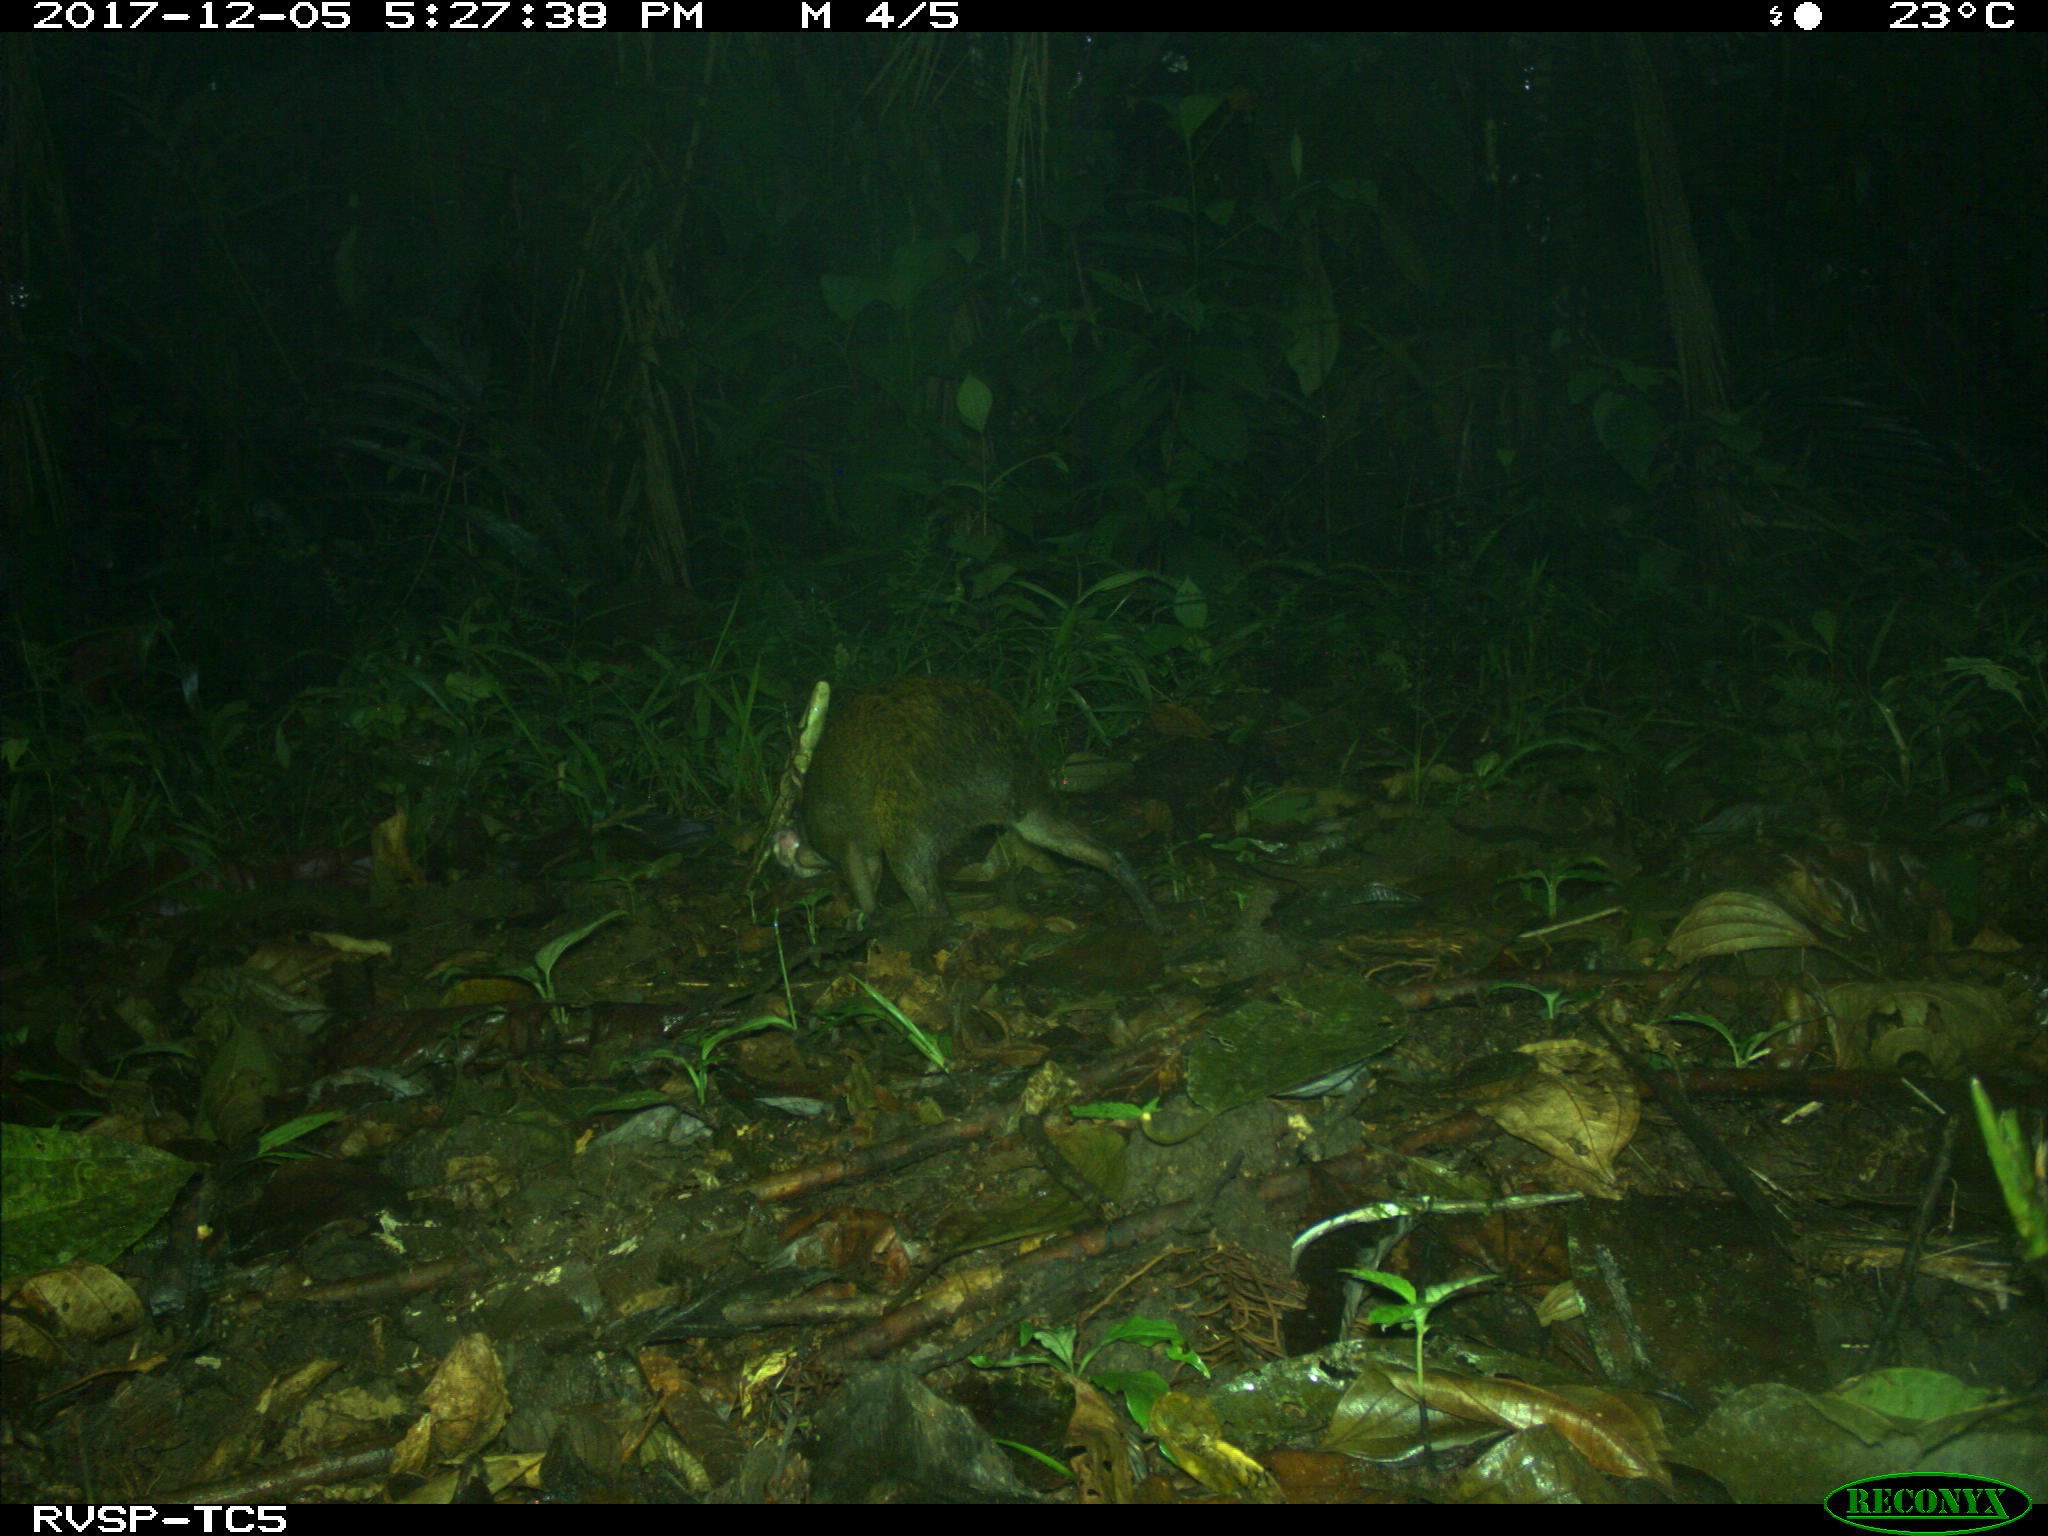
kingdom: Animalia
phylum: Chordata
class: Mammalia
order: Rodentia
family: Dasyproctidae
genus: Dasyprocta
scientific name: Dasyprocta punctata
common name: Central american agouti
